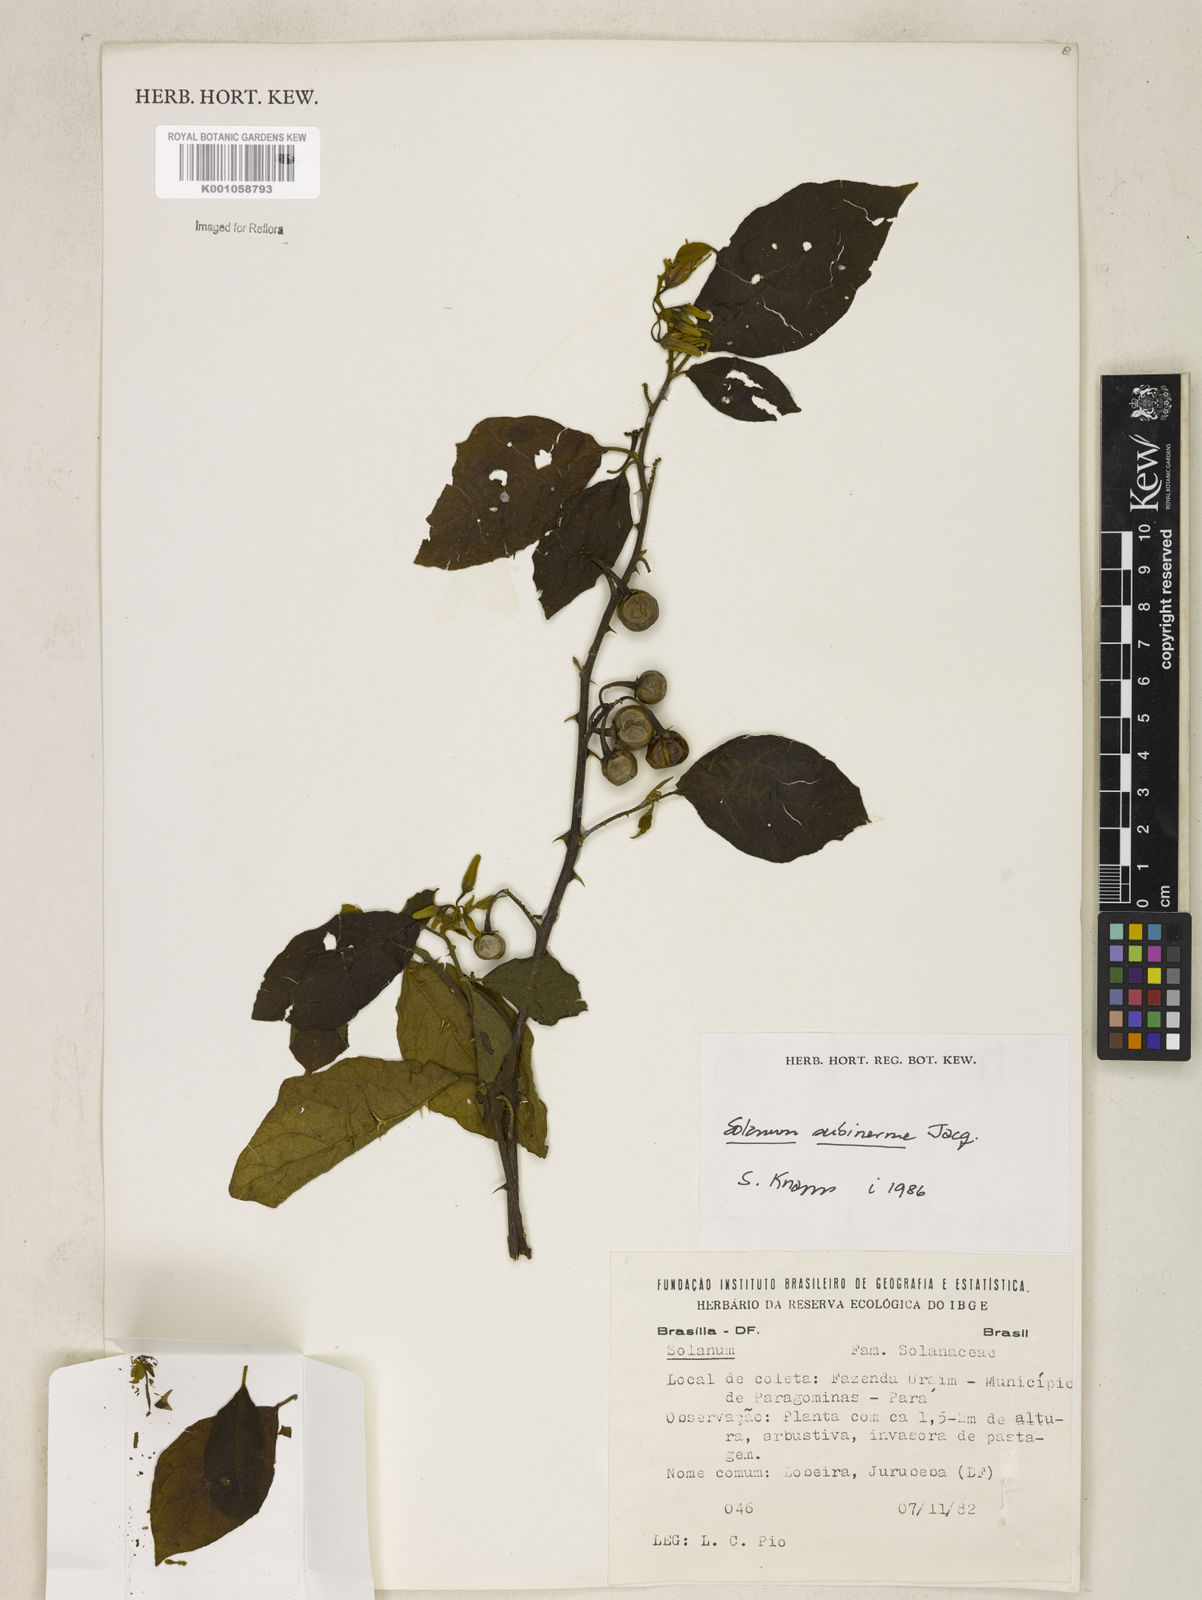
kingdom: Plantae
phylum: Tracheophyta
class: Magnoliopsida
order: Solanales
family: Solanaceae
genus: Solanum
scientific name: Solanum subinerme
